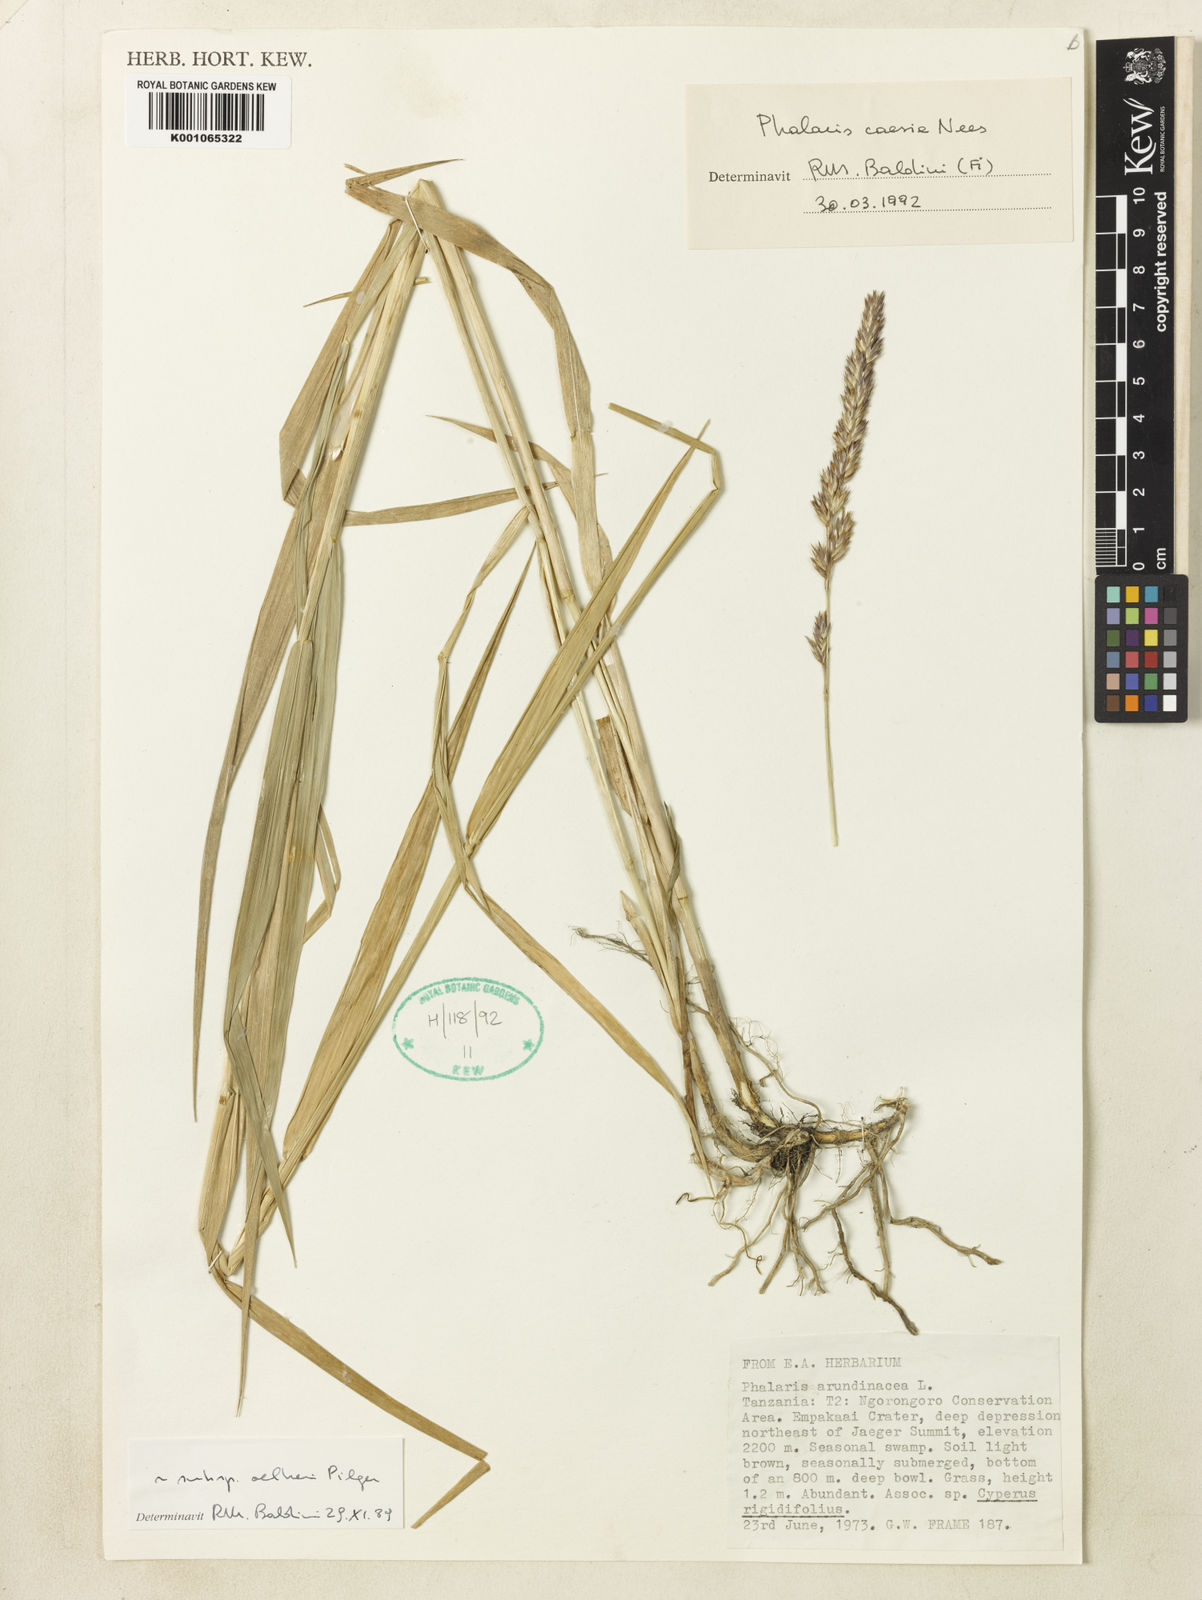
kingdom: Plantae
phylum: Tracheophyta
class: Liliopsida
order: Poales
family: Poaceae
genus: Phalaris
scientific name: Phalaris arundinacea
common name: Reed canary-grass
